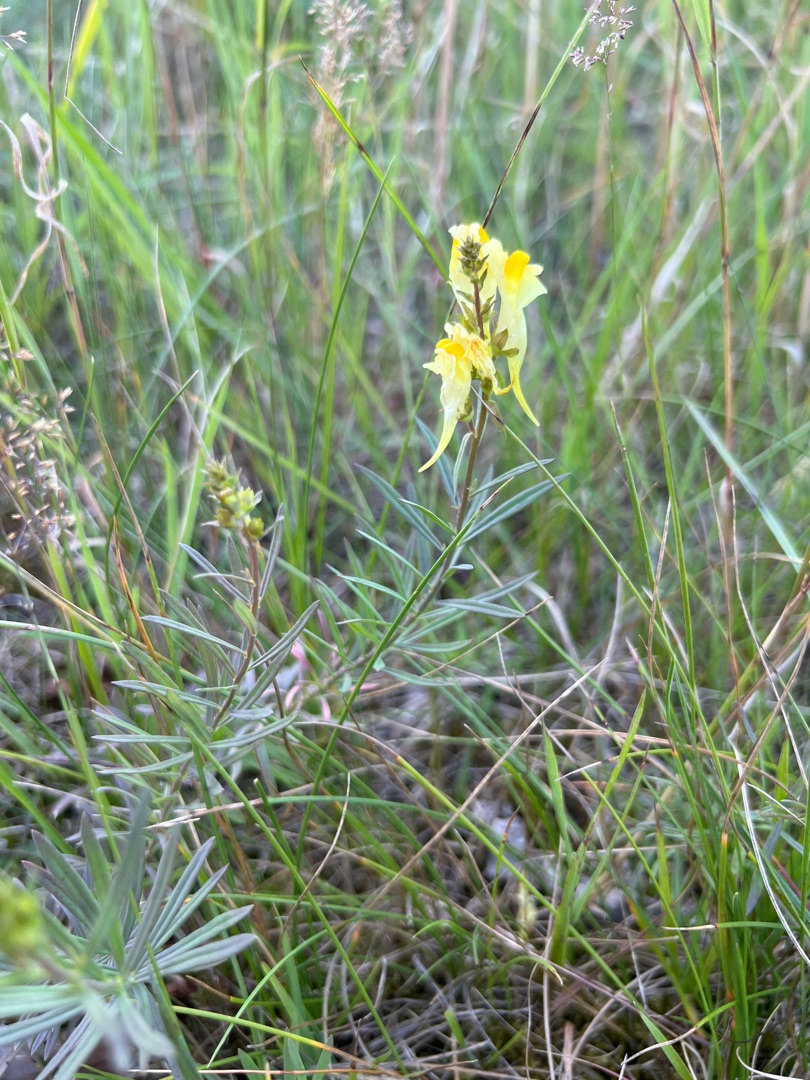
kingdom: Plantae
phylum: Tracheophyta
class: Magnoliopsida
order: Lamiales
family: Plantaginaceae
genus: Linaria
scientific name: Linaria vulgaris
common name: Almindelig torskemund
